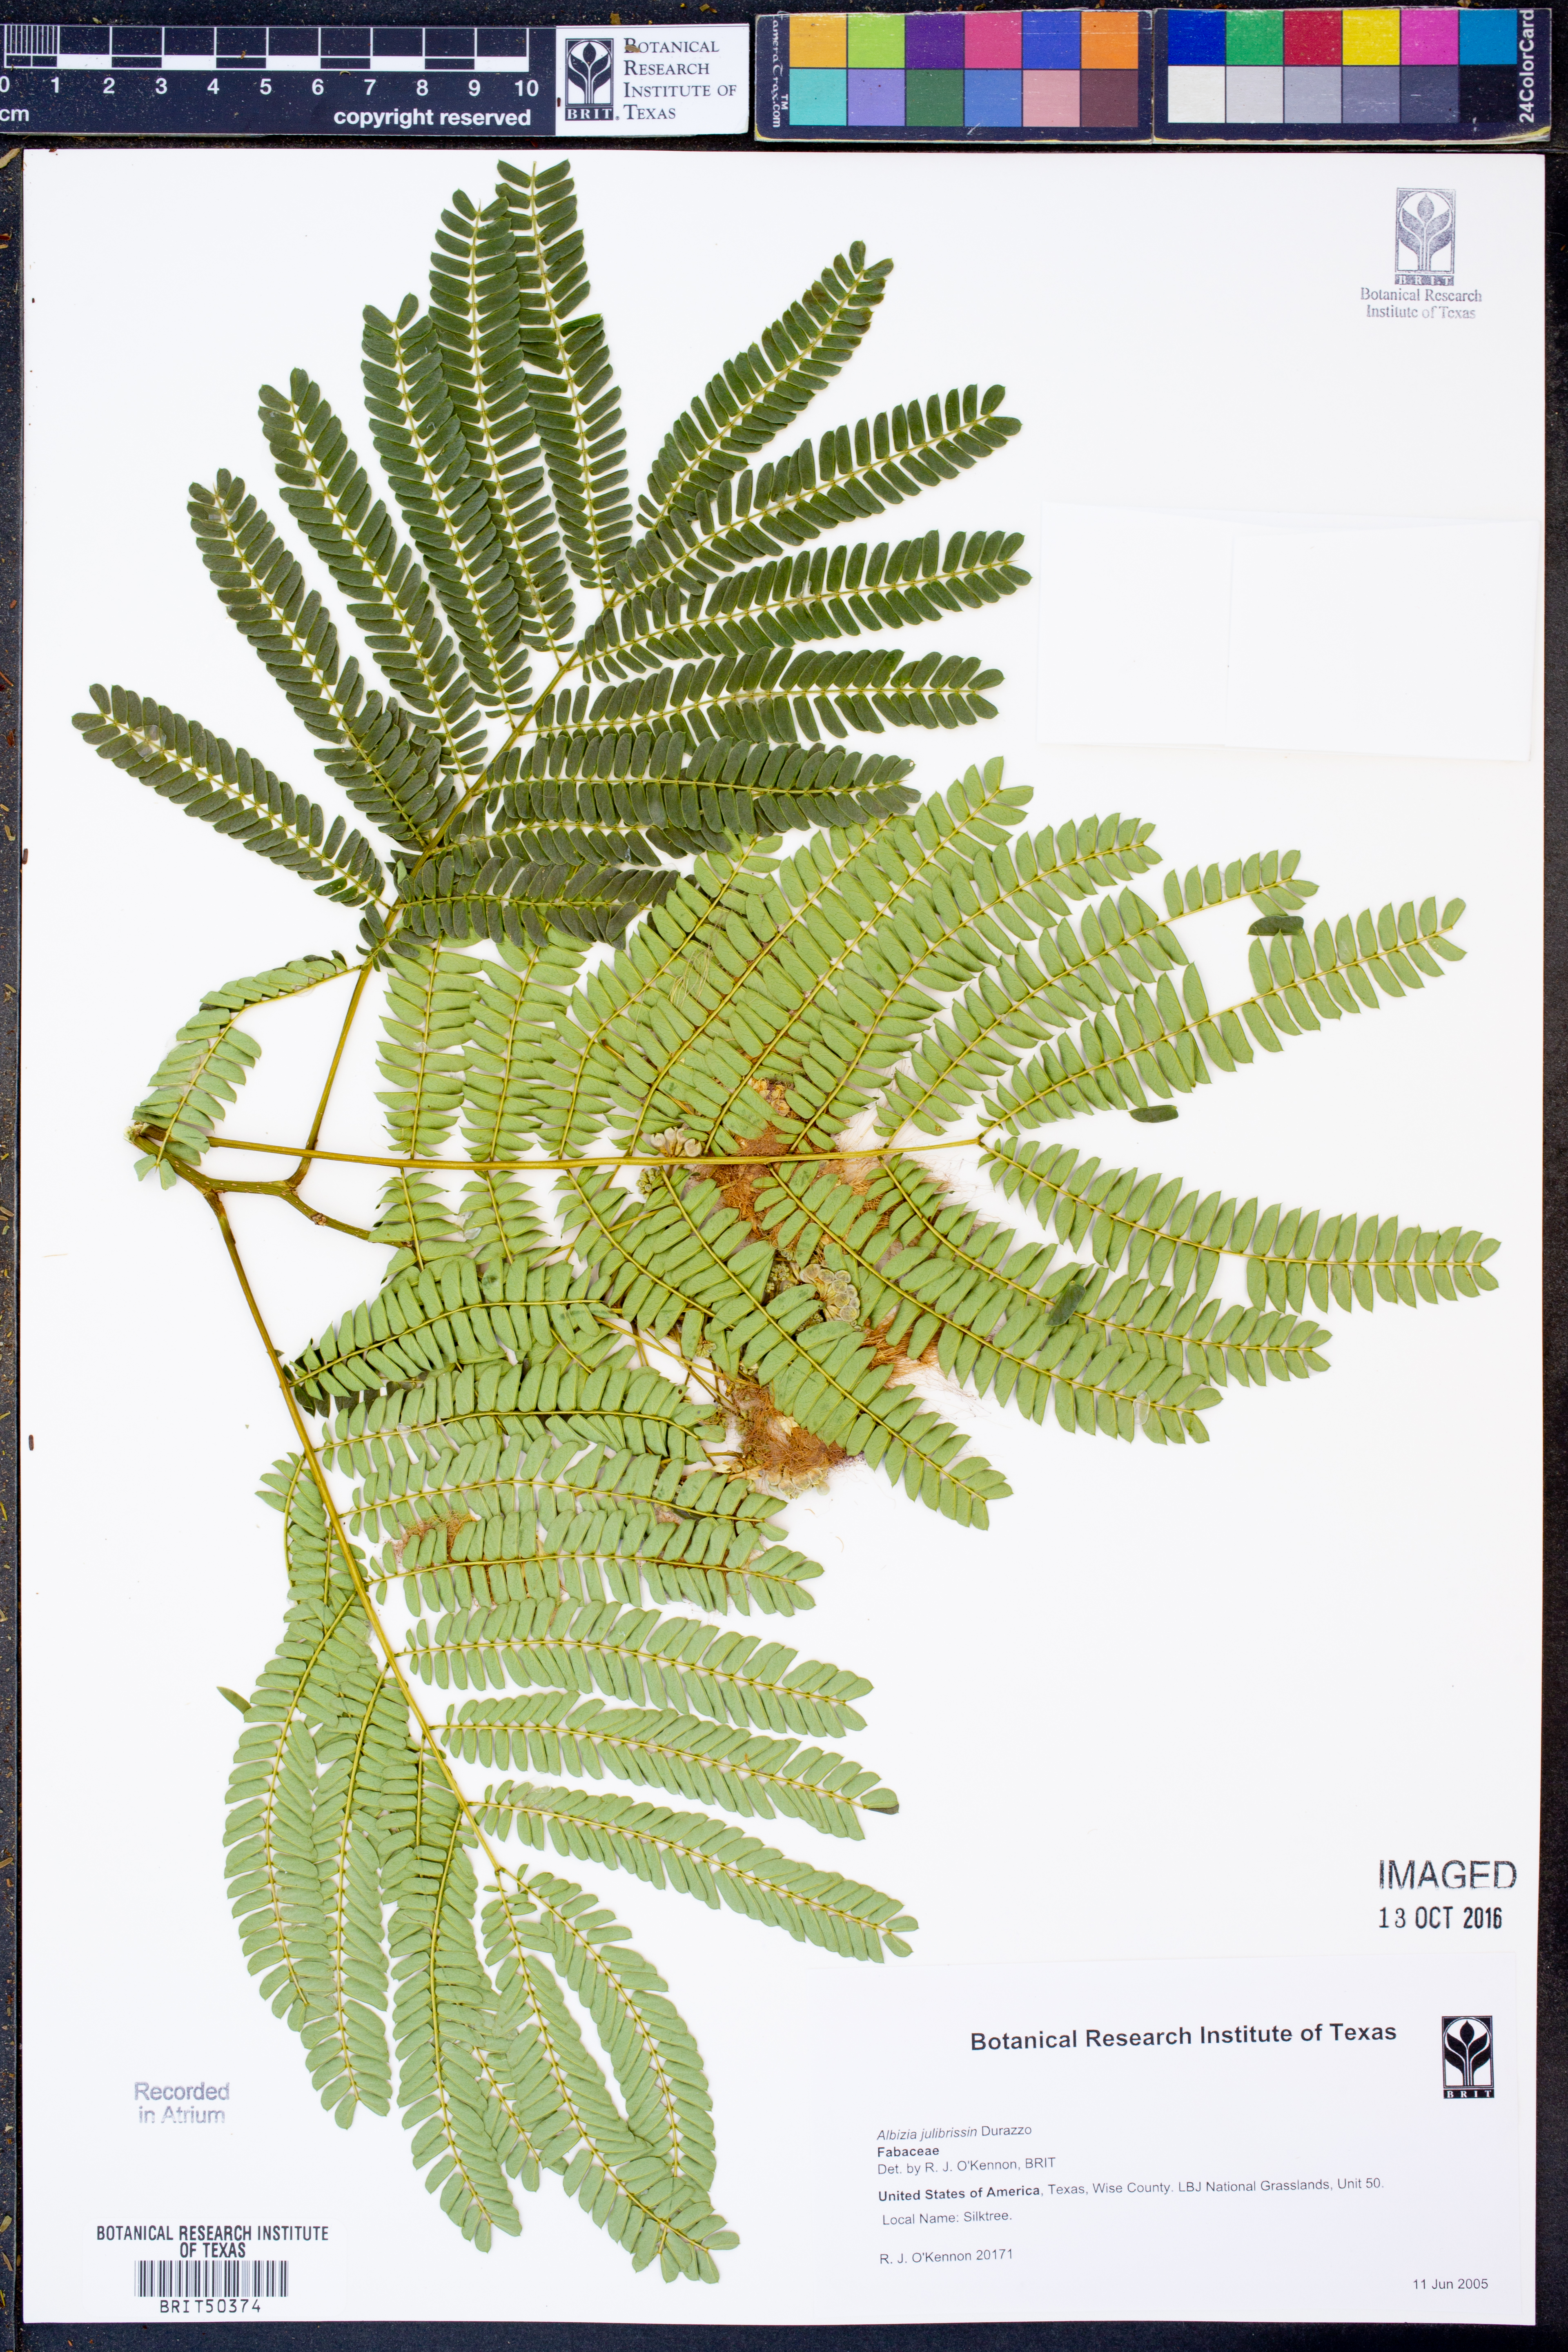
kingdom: Plantae
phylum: Tracheophyta
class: Magnoliopsida
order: Fabales
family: Fabaceae
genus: Albizia
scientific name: Albizia julibrissin
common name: Silktree
